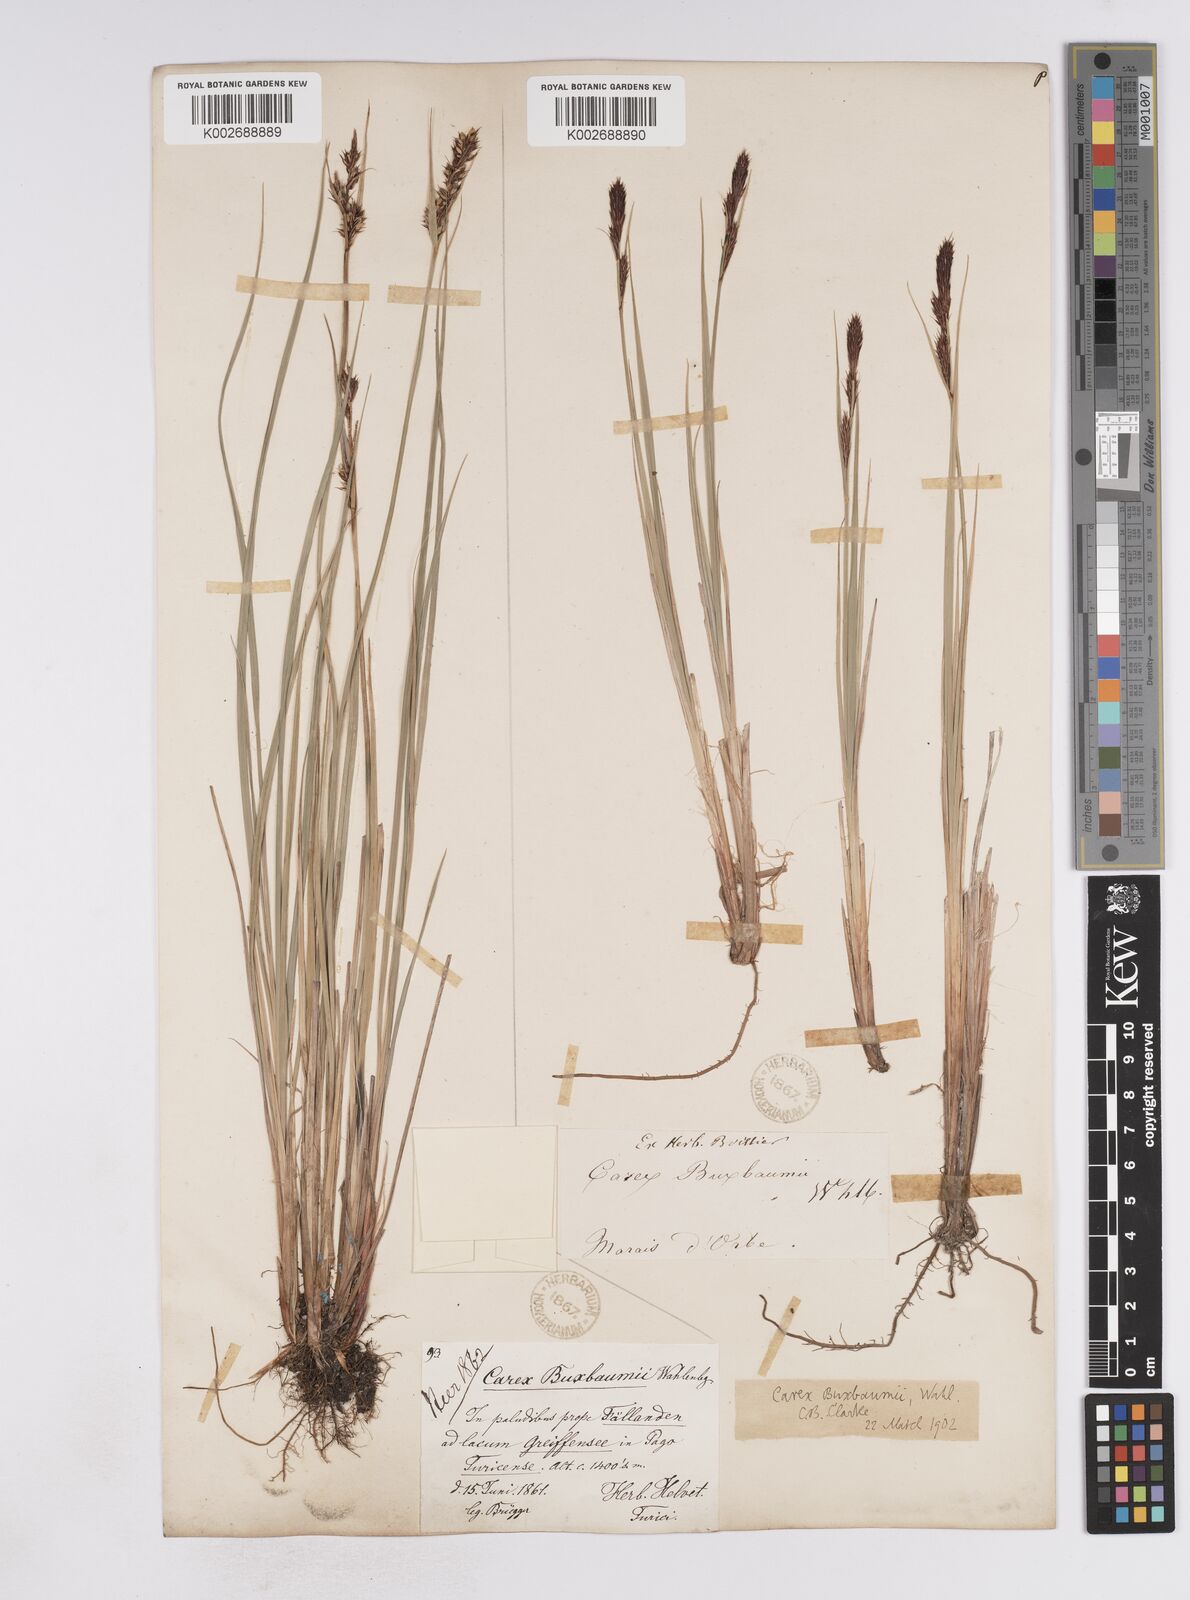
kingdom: Plantae
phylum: Tracheophyta
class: Liliopsida
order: Poales
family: Cyperaceae
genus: Carex
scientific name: Carex buxbaumii
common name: Club sedge
